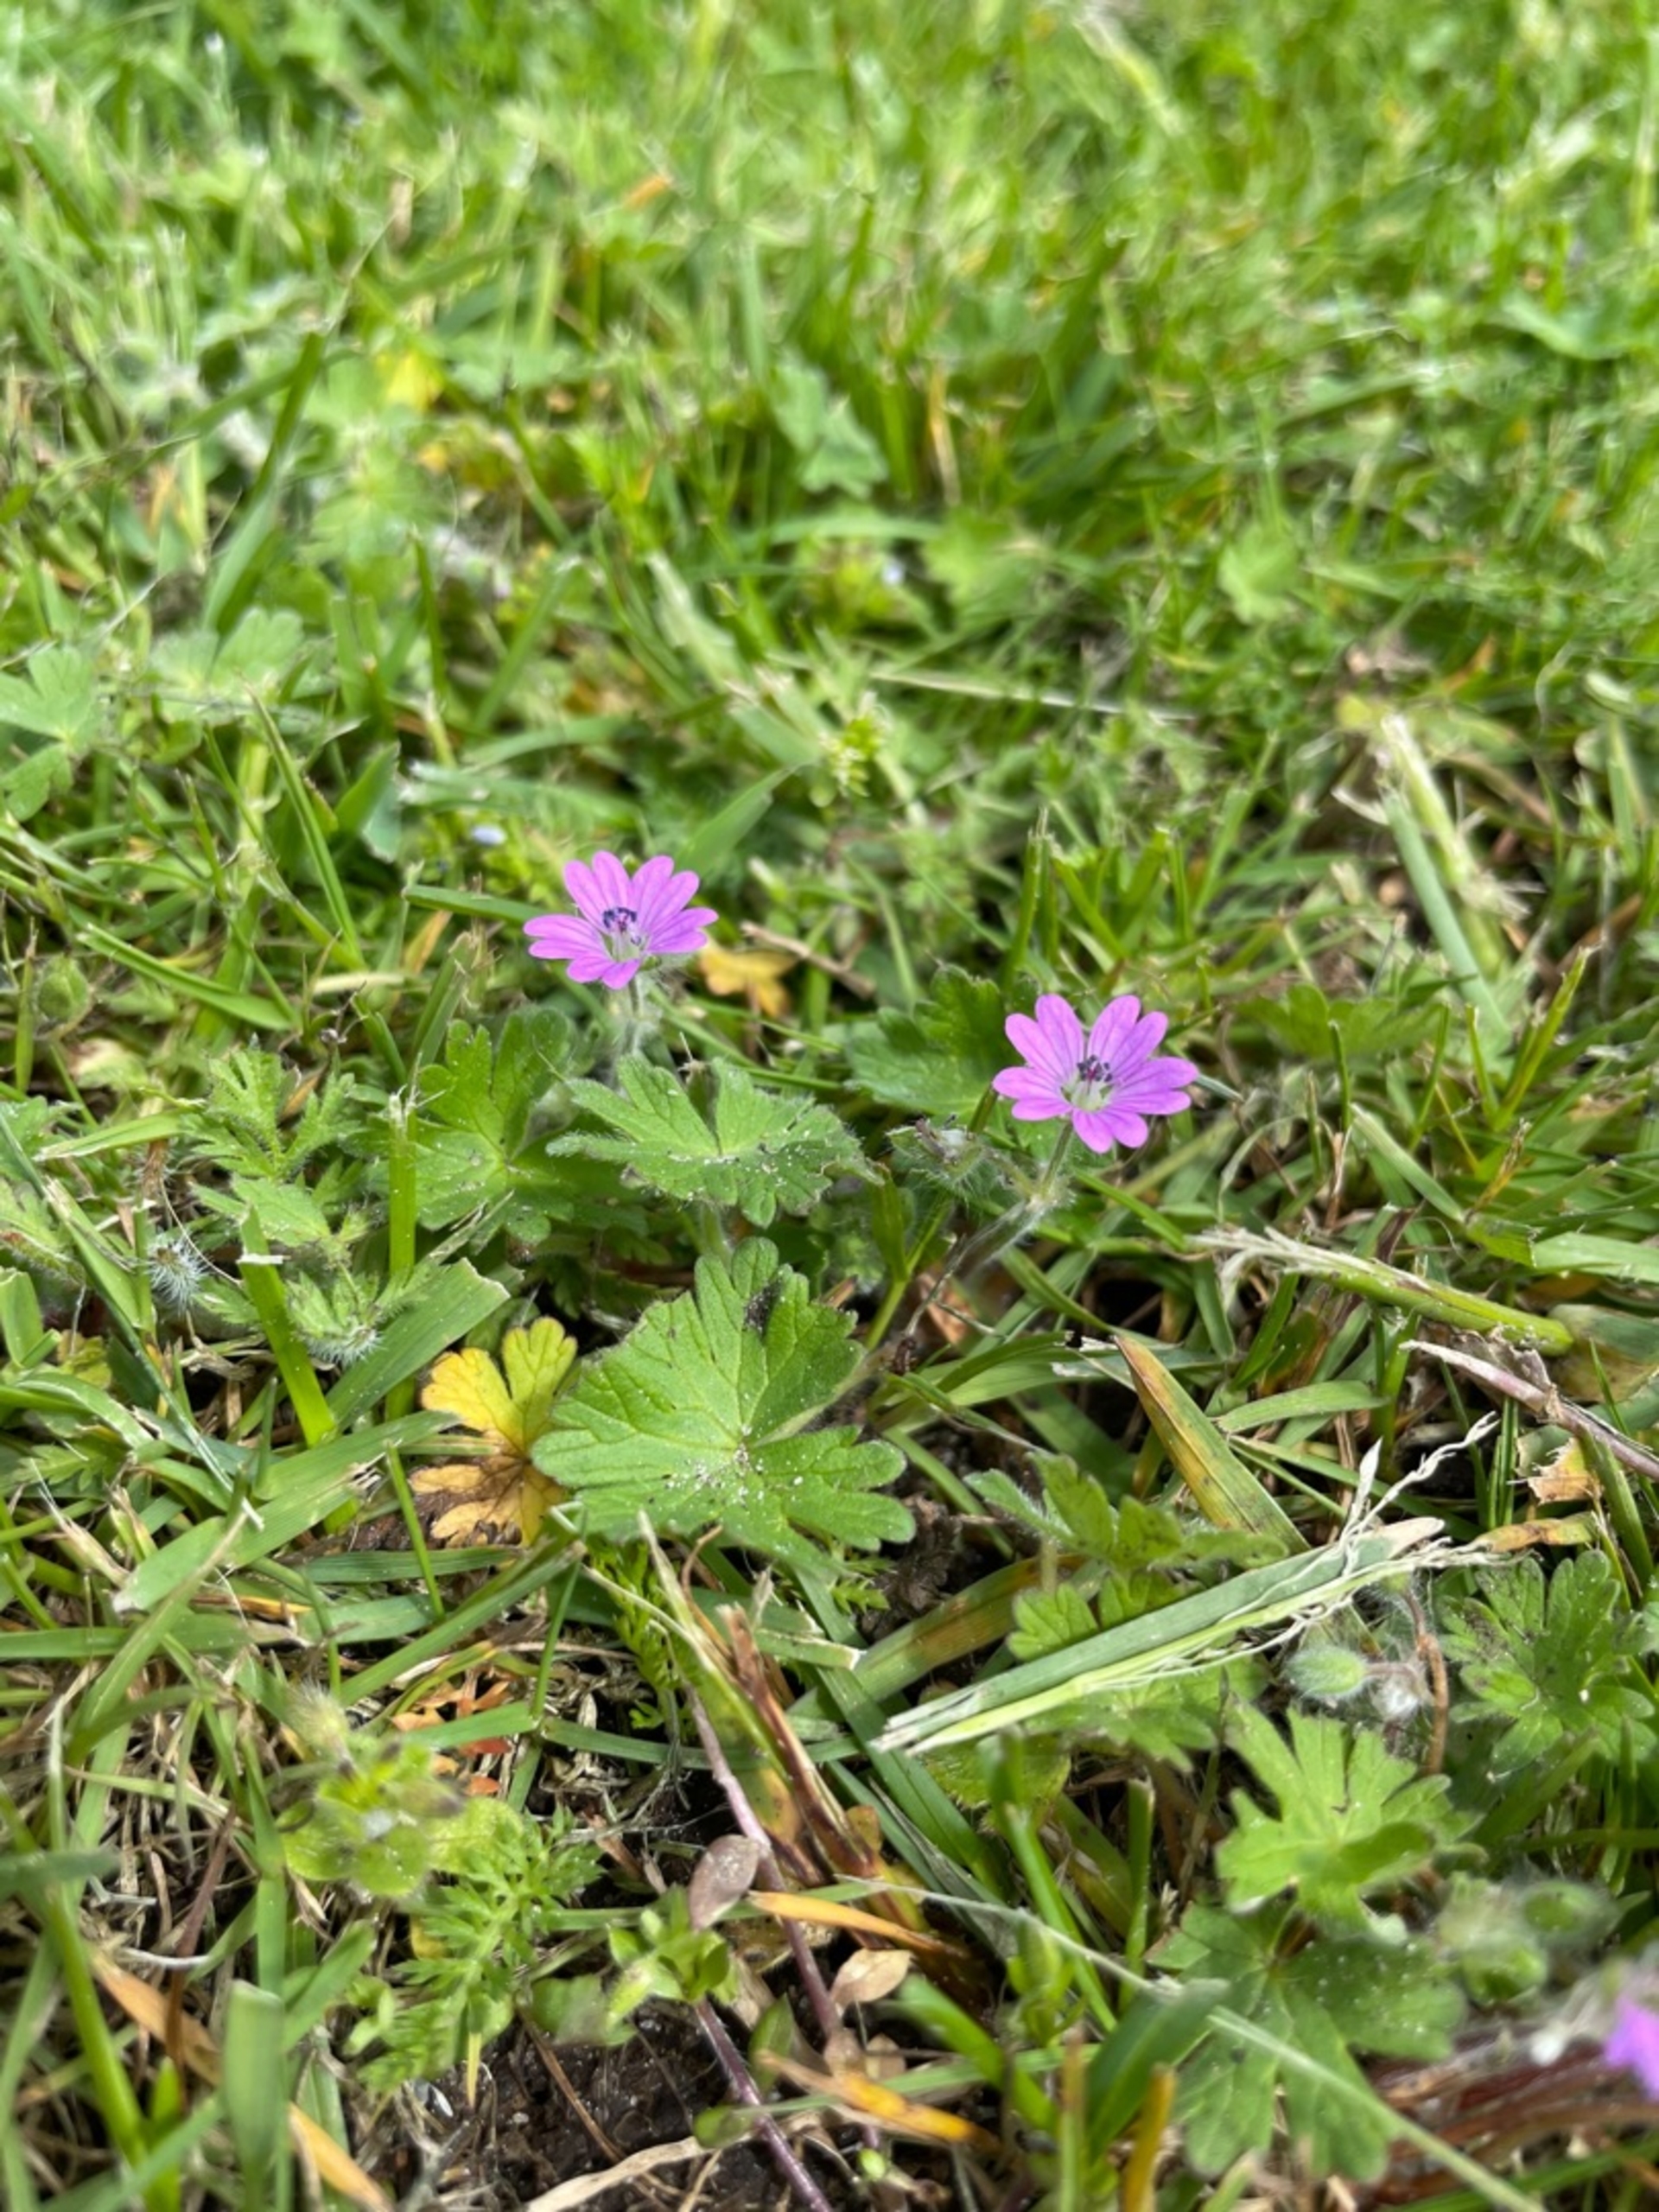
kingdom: Plantae
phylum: Tracheophyta
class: Magnoliopsida
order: Geraniales
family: Geraniaceae
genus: Geranium
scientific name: Geranium molle
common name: Blød storkenæb
